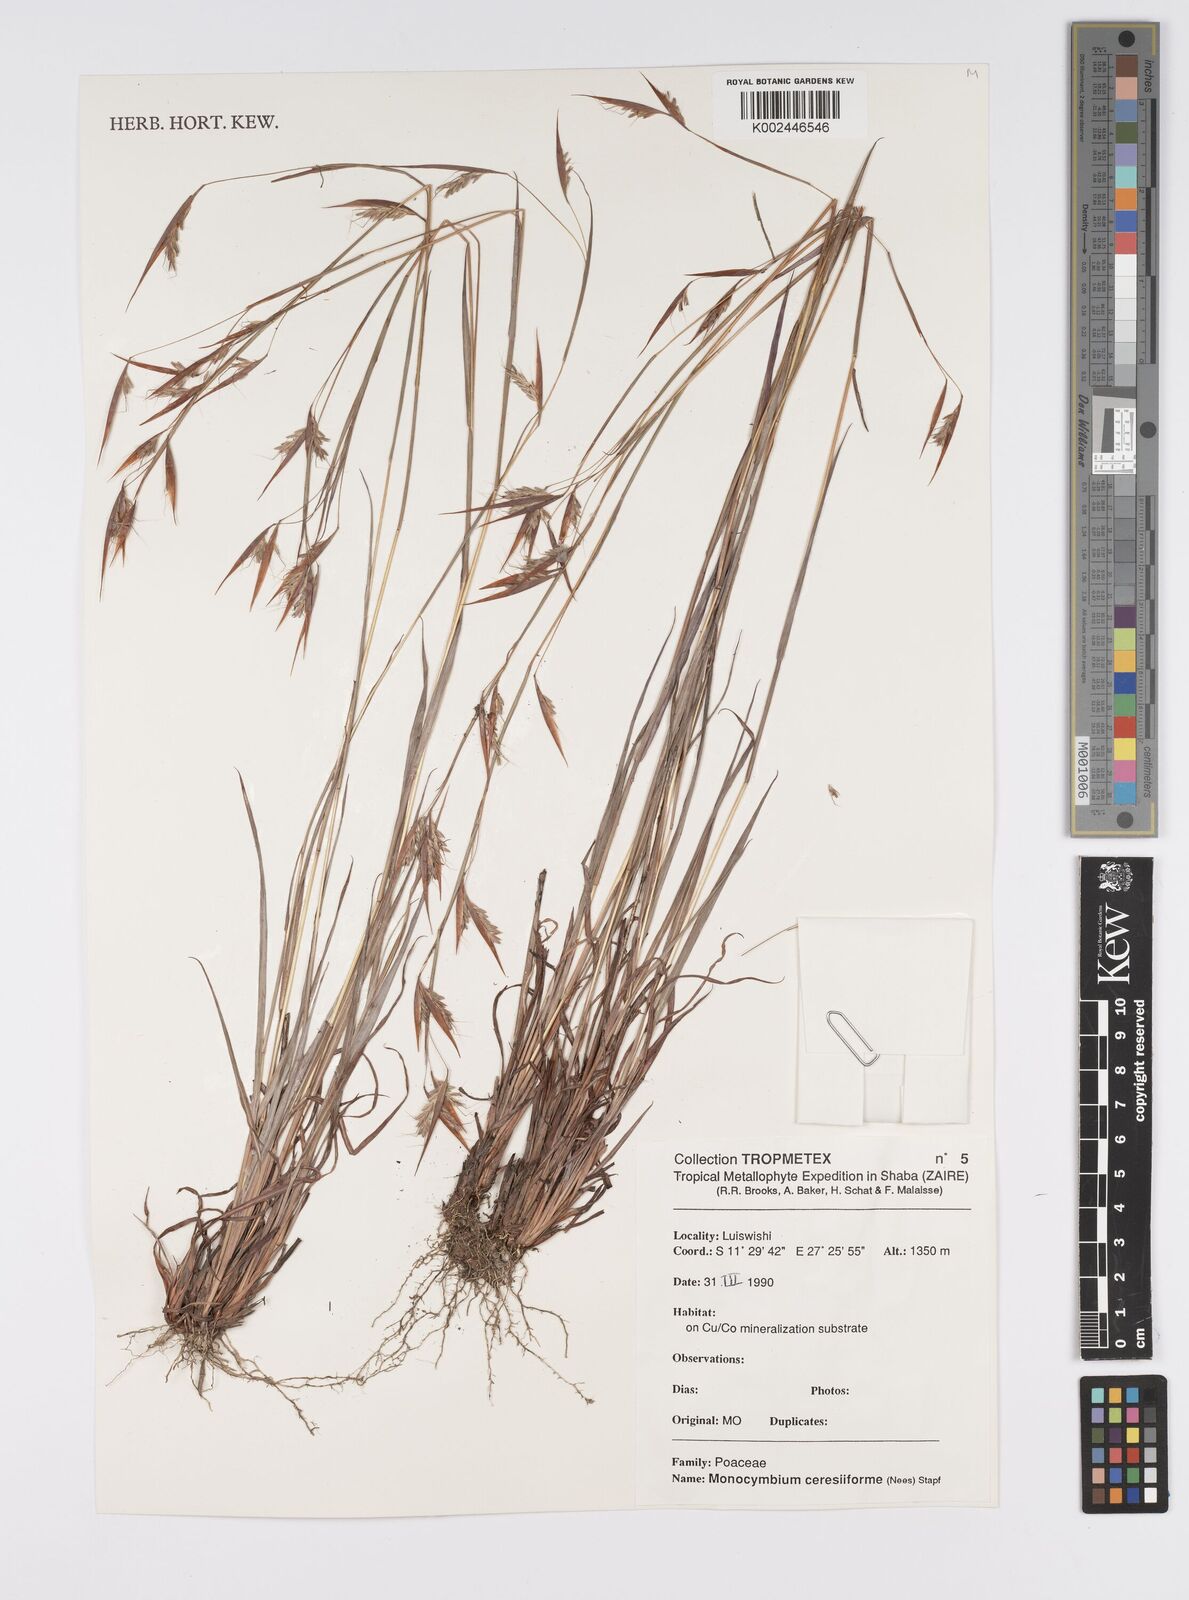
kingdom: Plantae
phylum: Tracheophyta
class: Liliopsida
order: Poales
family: Poaceae
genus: Monocymbium
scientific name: Monocymbium ceresiiforme
